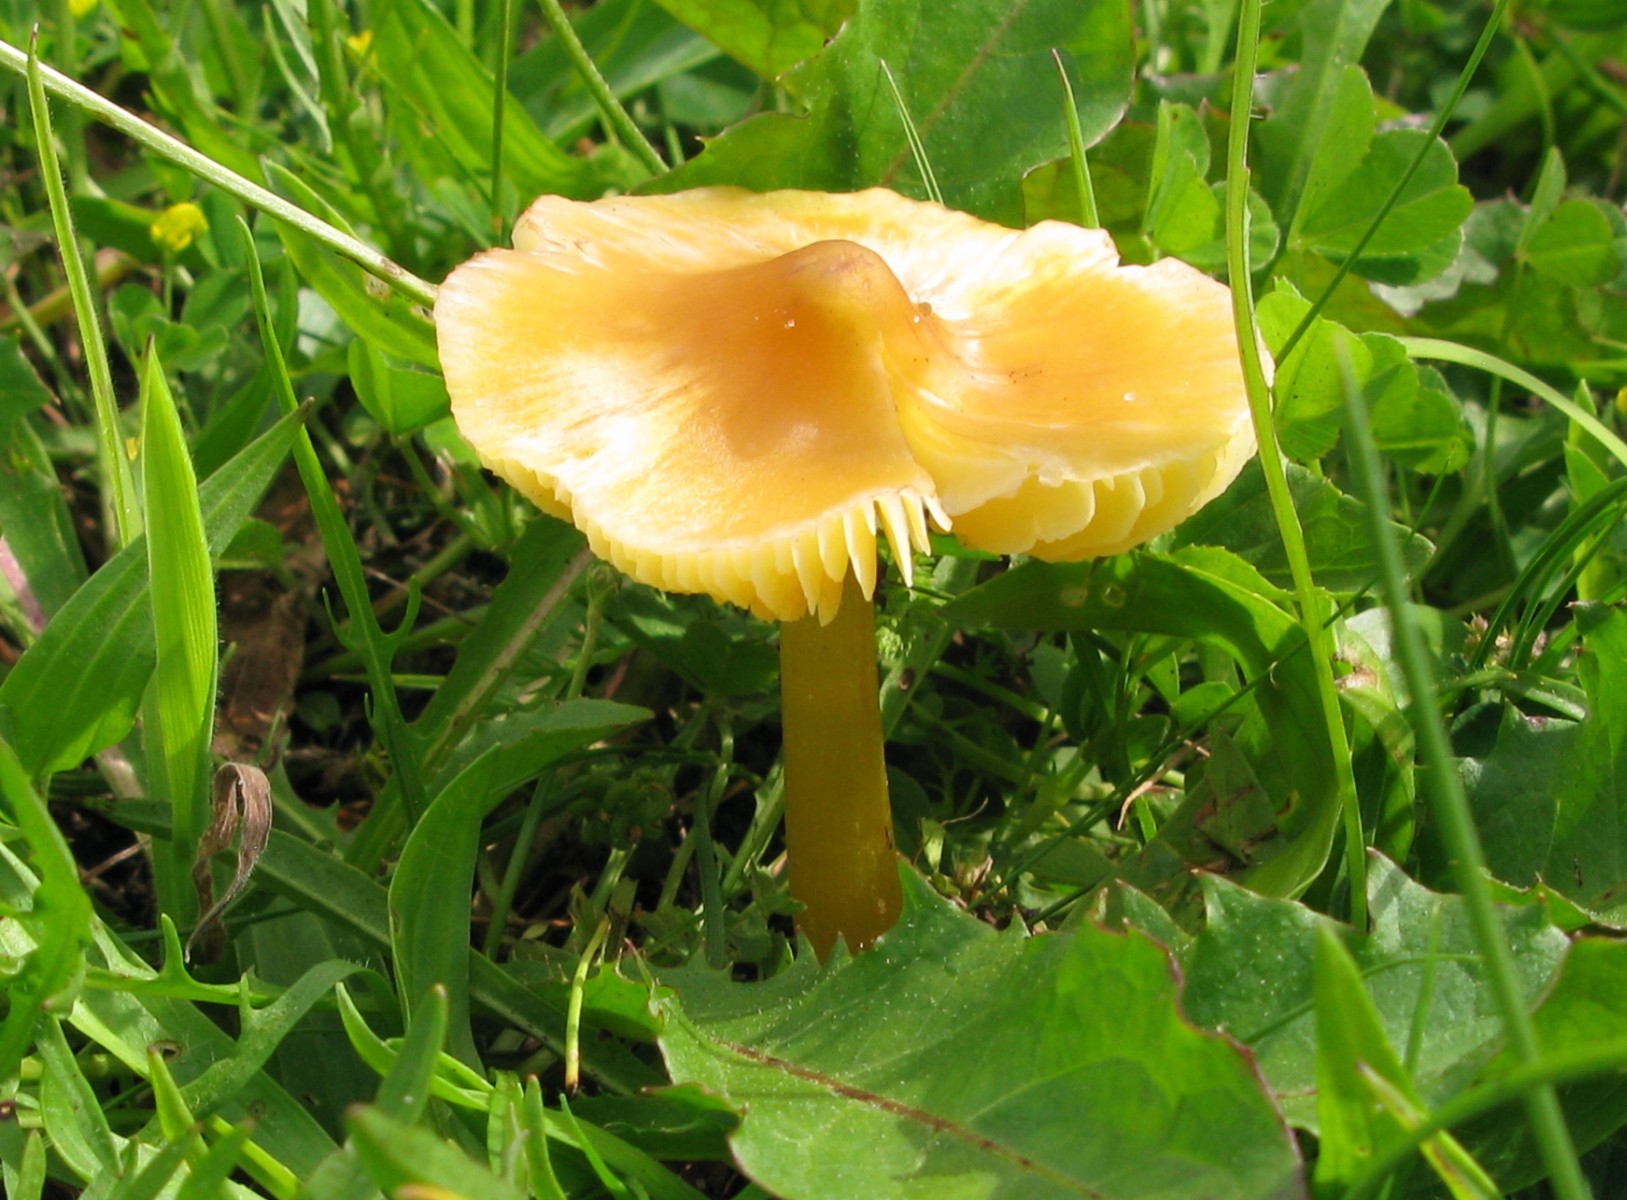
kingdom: Fungi
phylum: Basidiomycota
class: Agaricomycetes
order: Agaricales
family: Hygrophoraceae
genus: Hygrocybe
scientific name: Hygrocybe
